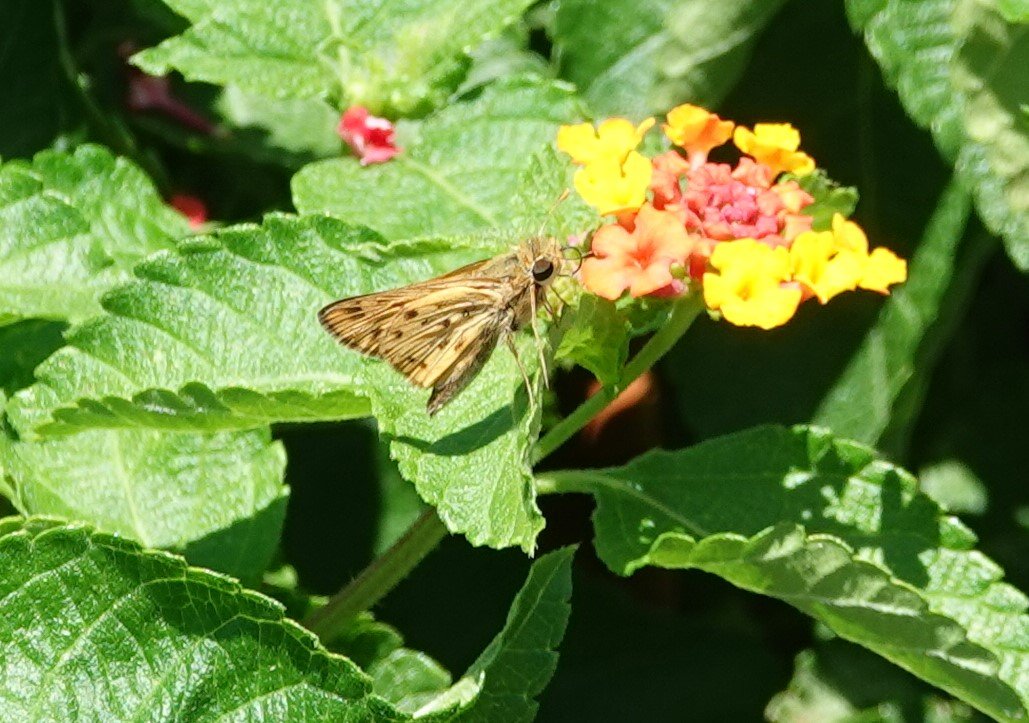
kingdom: Animalia
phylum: Arthropoda
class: Insecta
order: Lepidoptera
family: Hesperiidae
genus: Hylephila
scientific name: Hylephila phyleus
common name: Fiery Skipper
